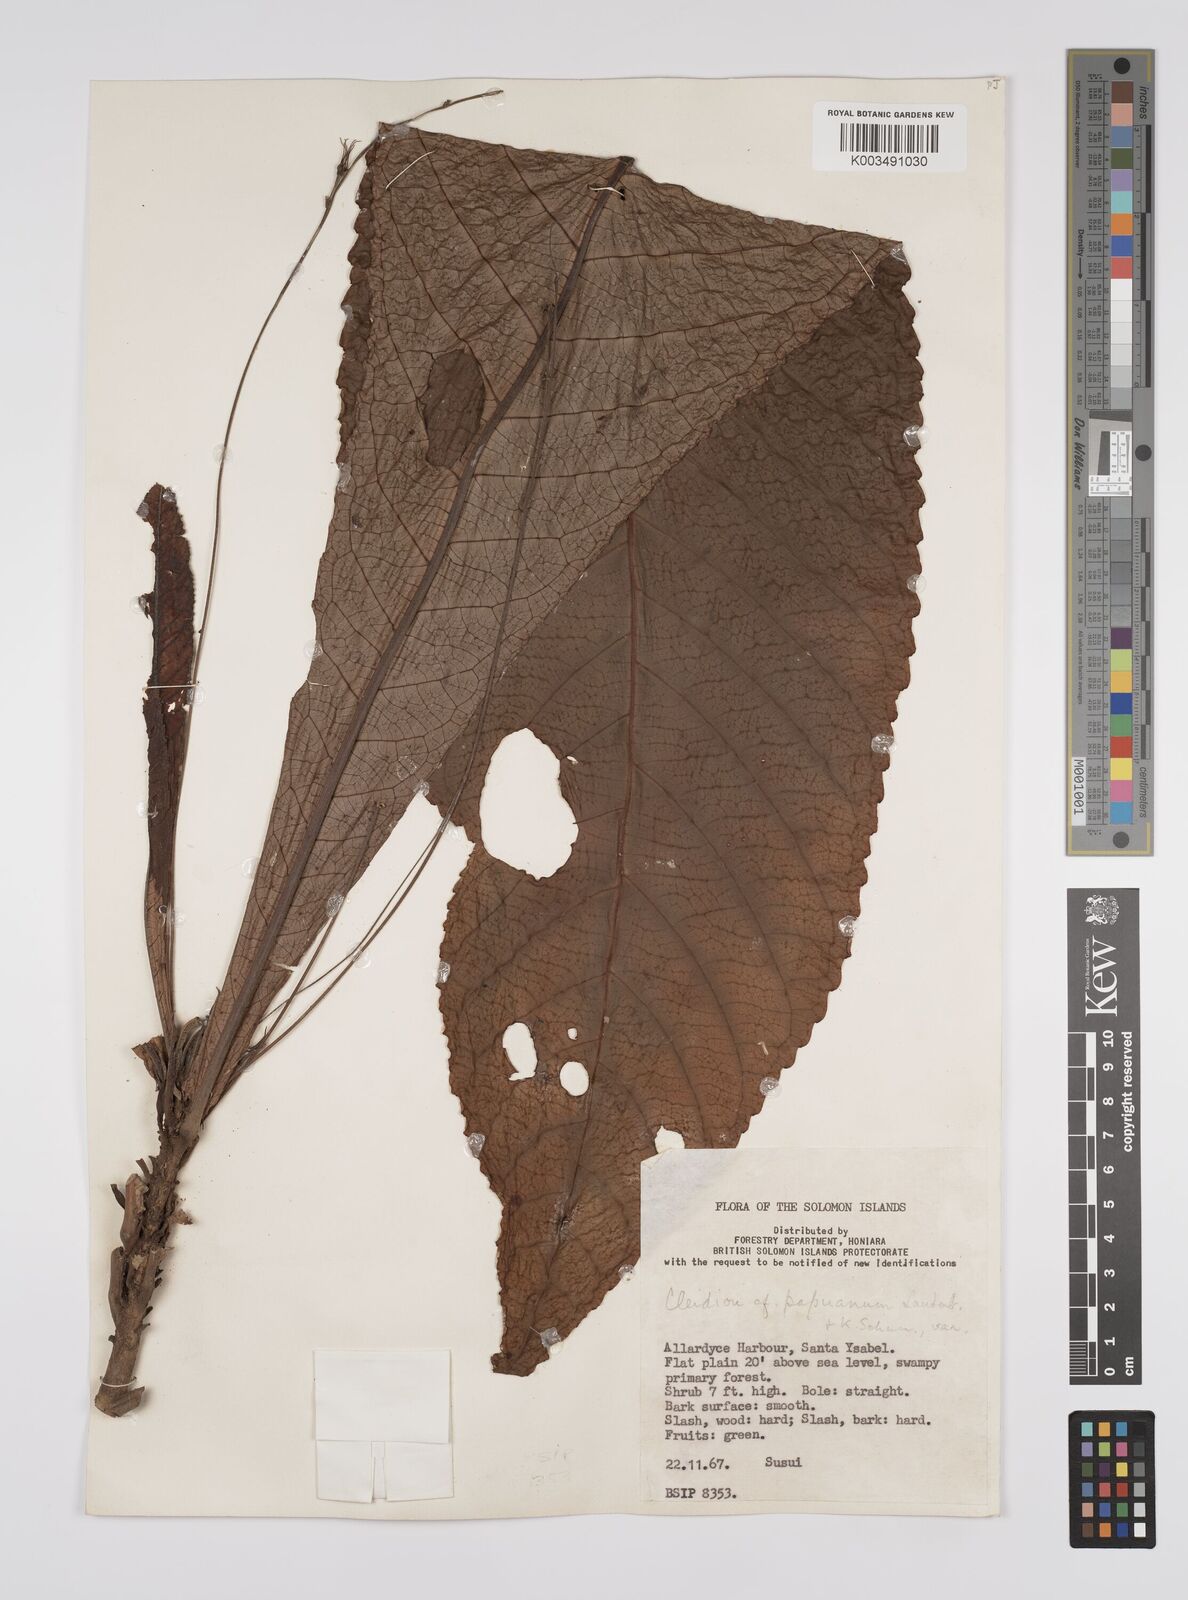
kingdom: Plantae
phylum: Tracheophyta
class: Magnoliopsida
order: Malpighiales
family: Euphorbiaceae
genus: Cleidion
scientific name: Cleidion papuanum
